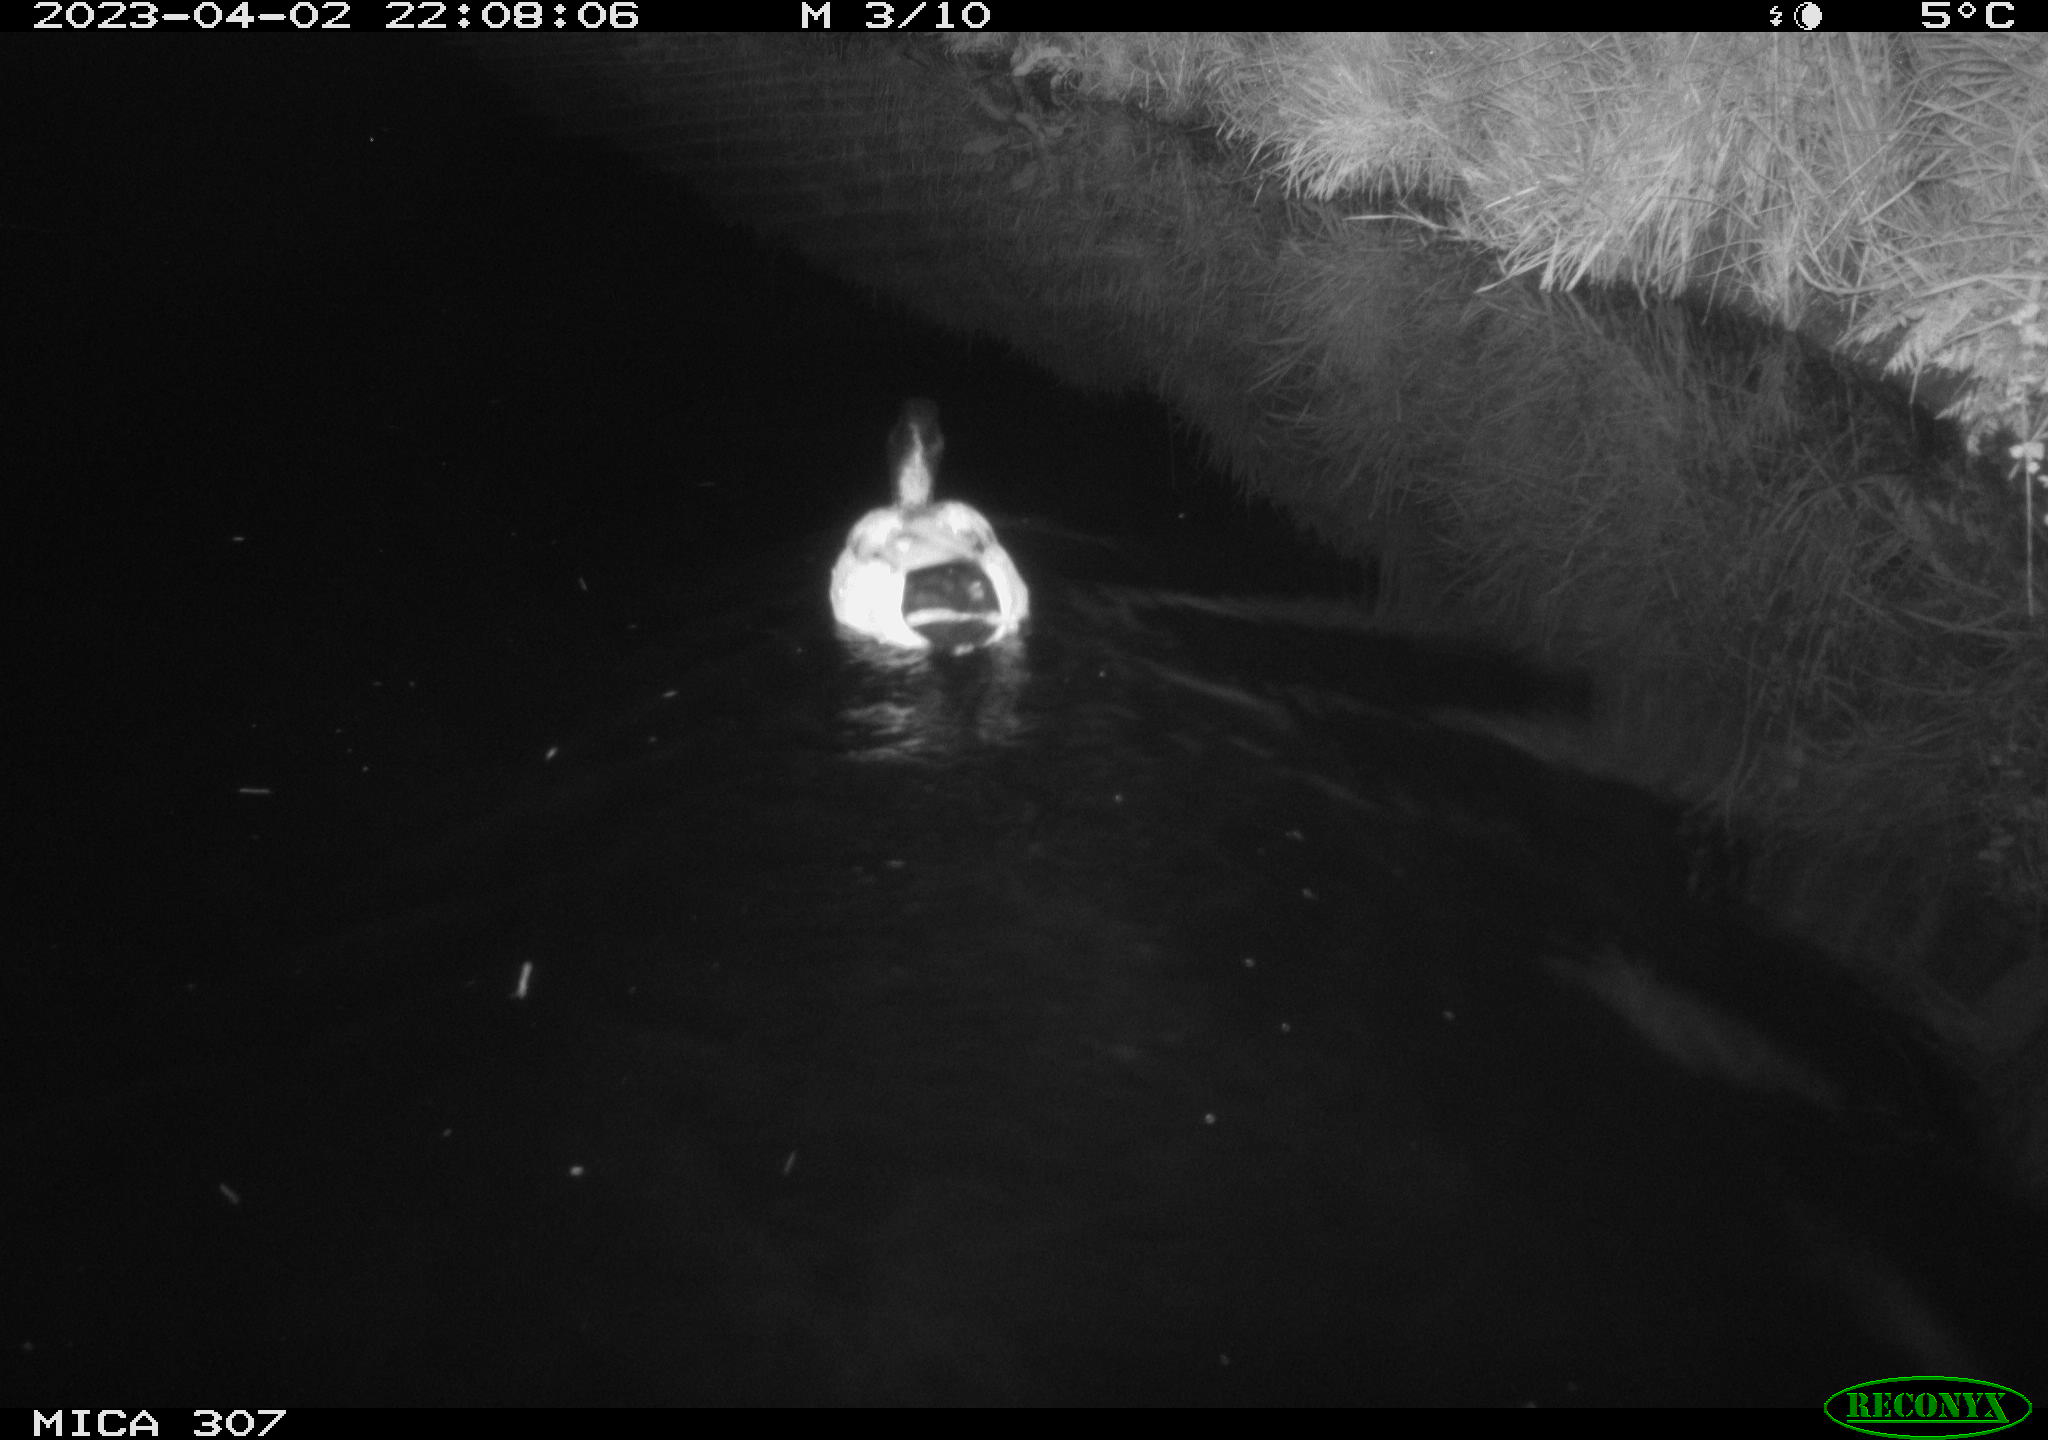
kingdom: Animalia
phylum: Chordata
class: Aves
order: Anseriformes
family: Anatidae
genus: Anas
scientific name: Anas
